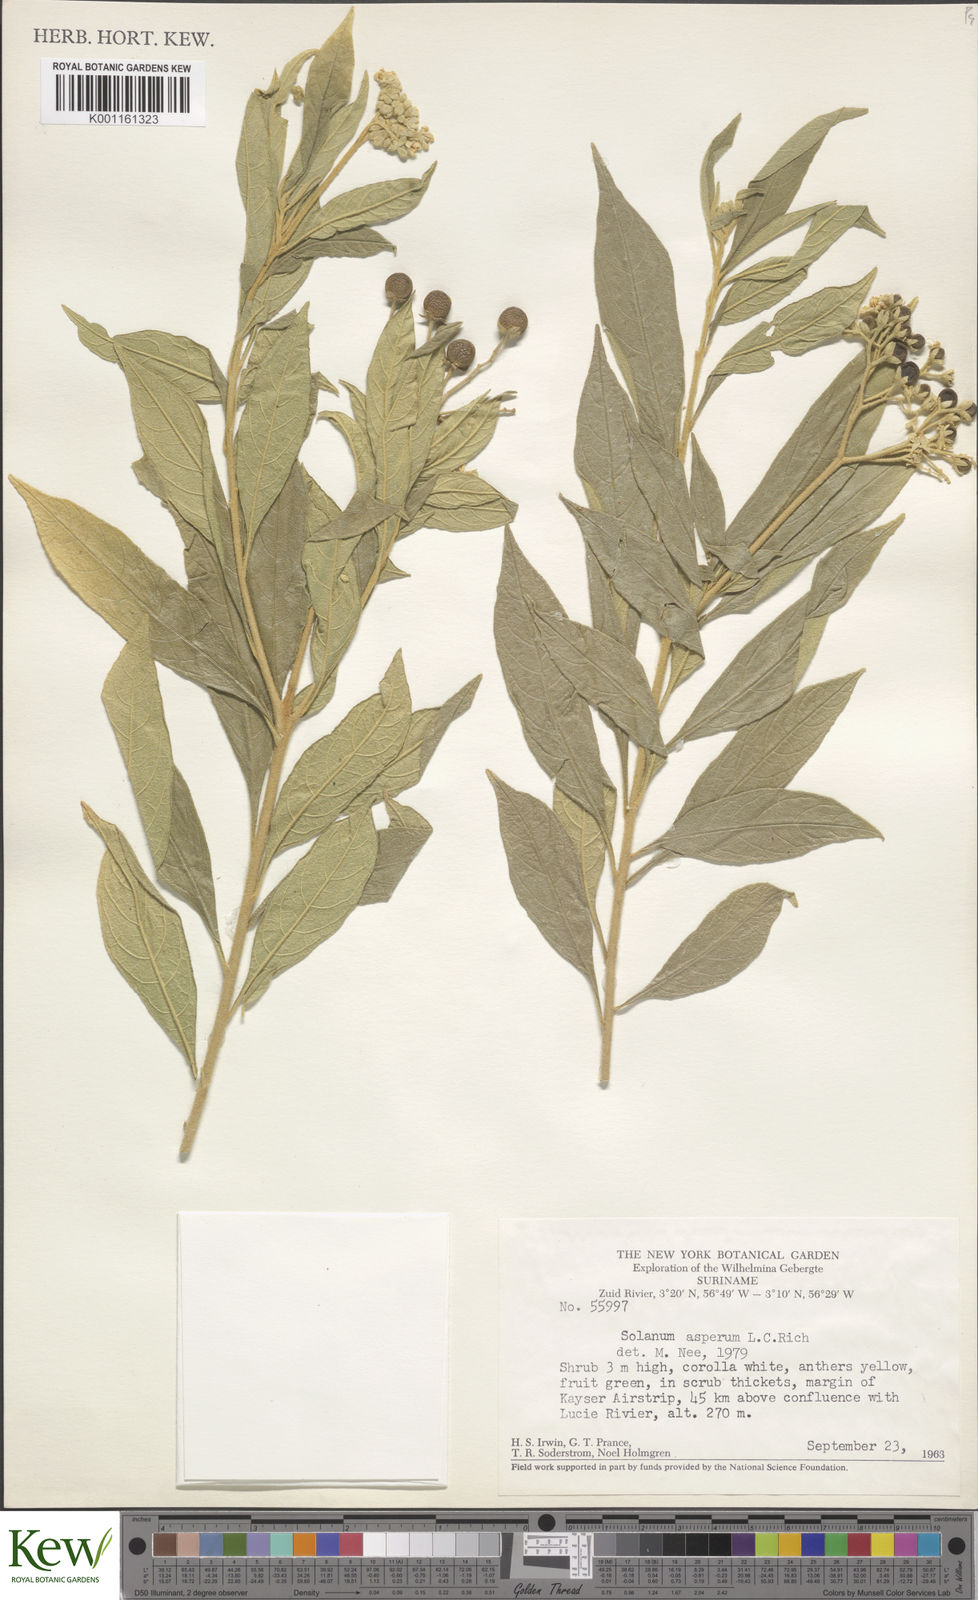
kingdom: Plantae
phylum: Tracheophyta
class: Magnoliopsida
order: Solanales
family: Solanaceae
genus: Solanum
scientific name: Solanum asperum
